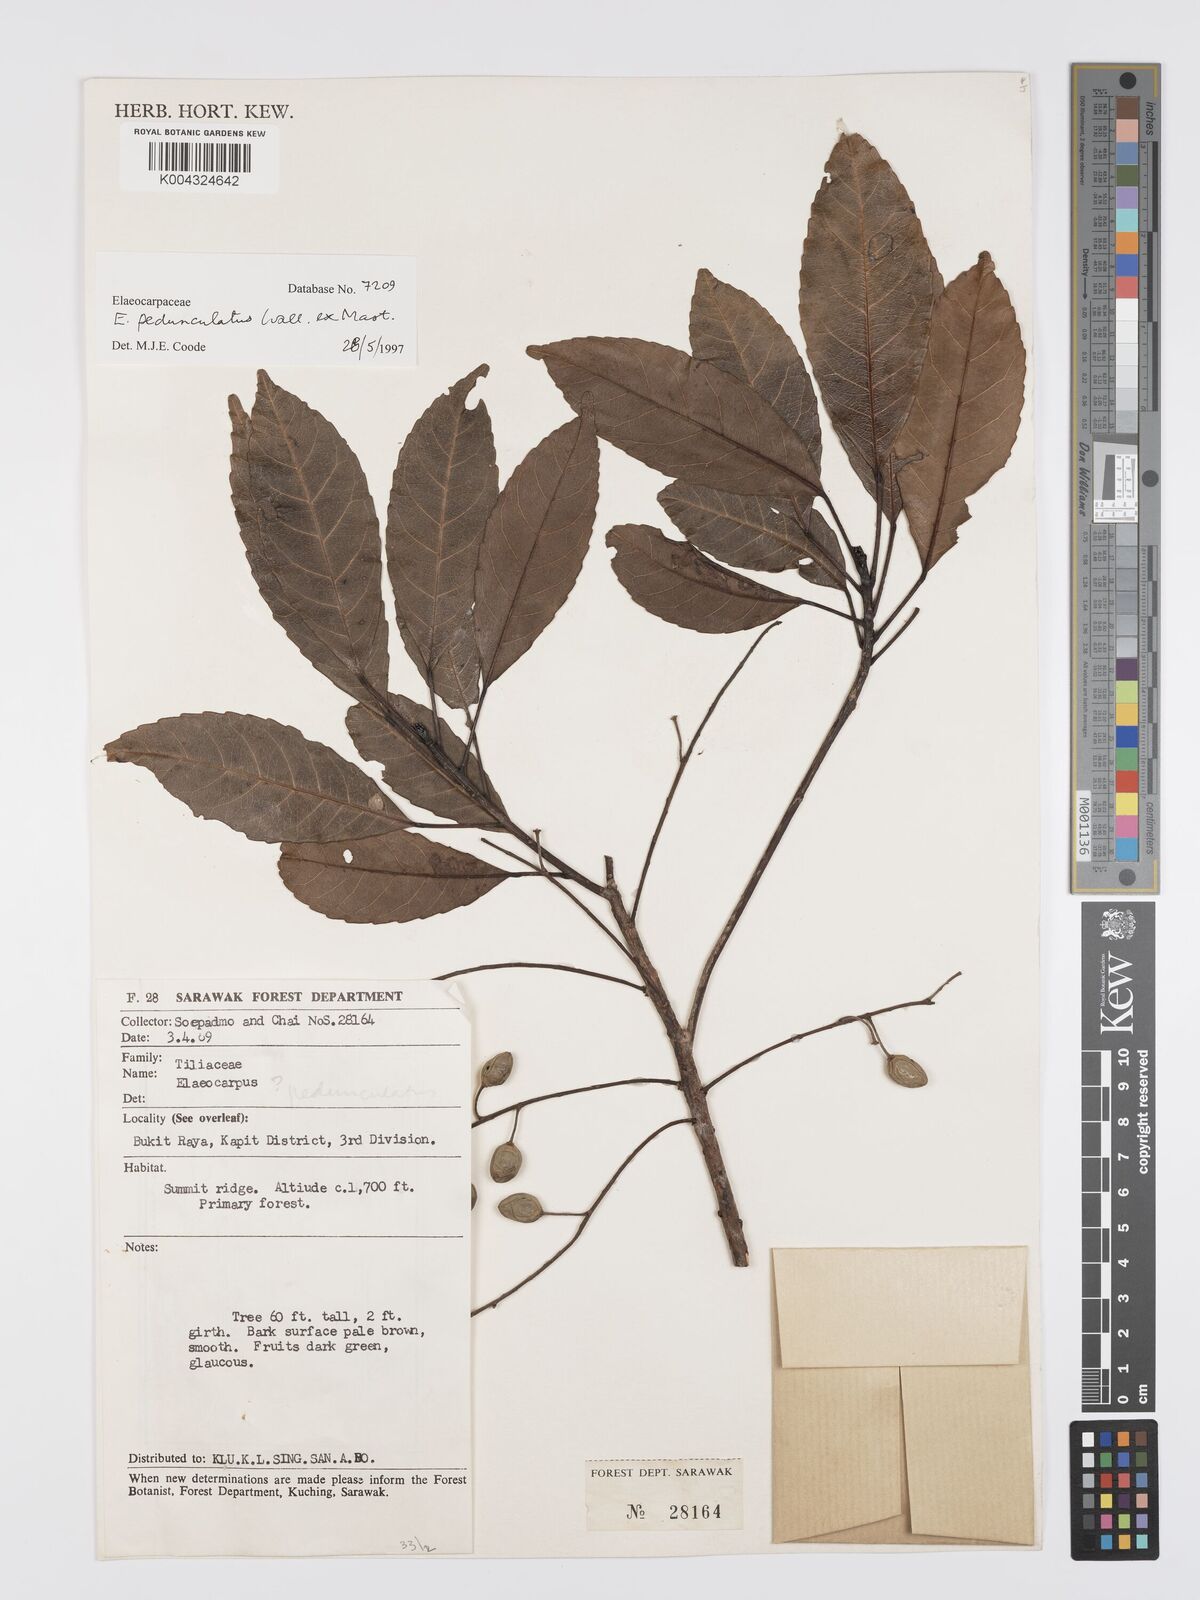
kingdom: Plantae
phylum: Tracheophyta
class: Magnoliopsida
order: Oxalidales
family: Elaeocarpaceae
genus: Elaeocarpus
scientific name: Elaeocarpus pedunculatus
